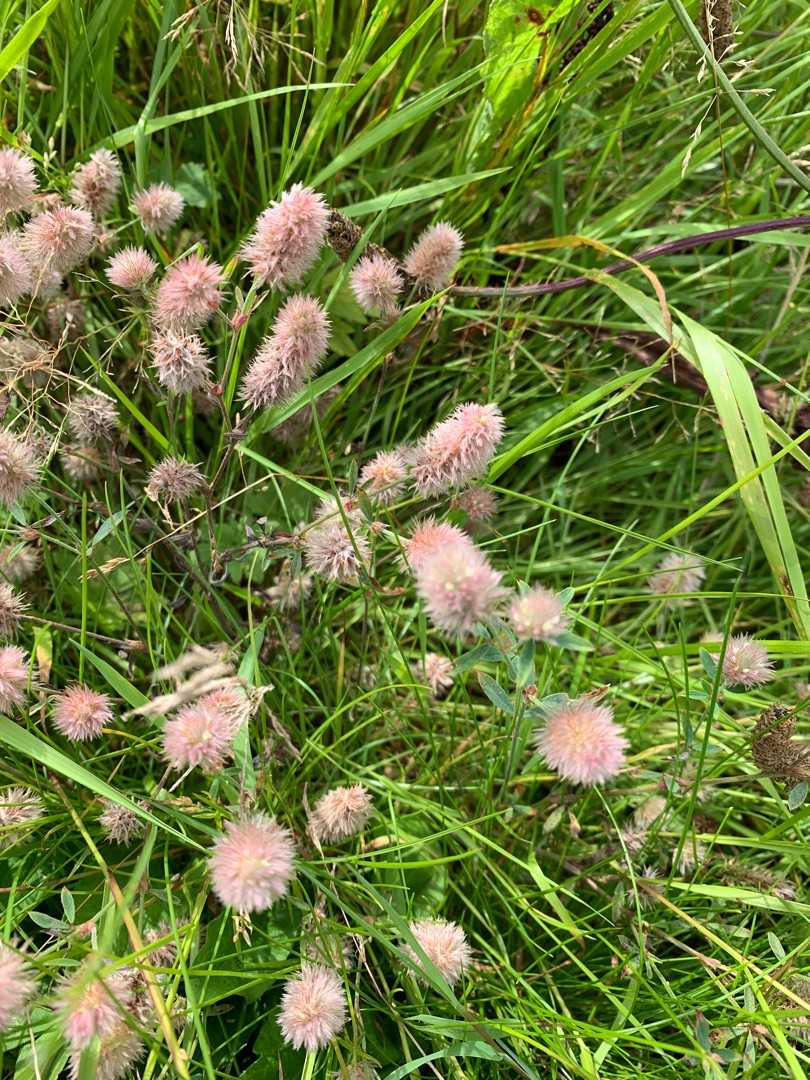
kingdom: Plantae
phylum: Tracheophyta
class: Magnoliopsida
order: Fabales
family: Fabaceae
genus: Trifolium
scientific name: Trifolium arvense
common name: Hare-kløver
